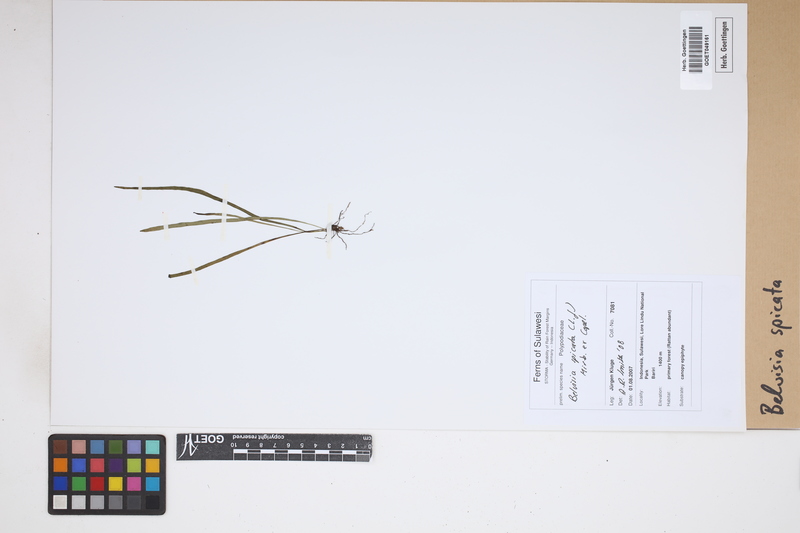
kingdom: Plantae
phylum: Tracheophyta
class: Polypodiopsida
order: Polypodiales
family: Polypodiaceae
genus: Lepisorus
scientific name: Lepisorus spicatus
